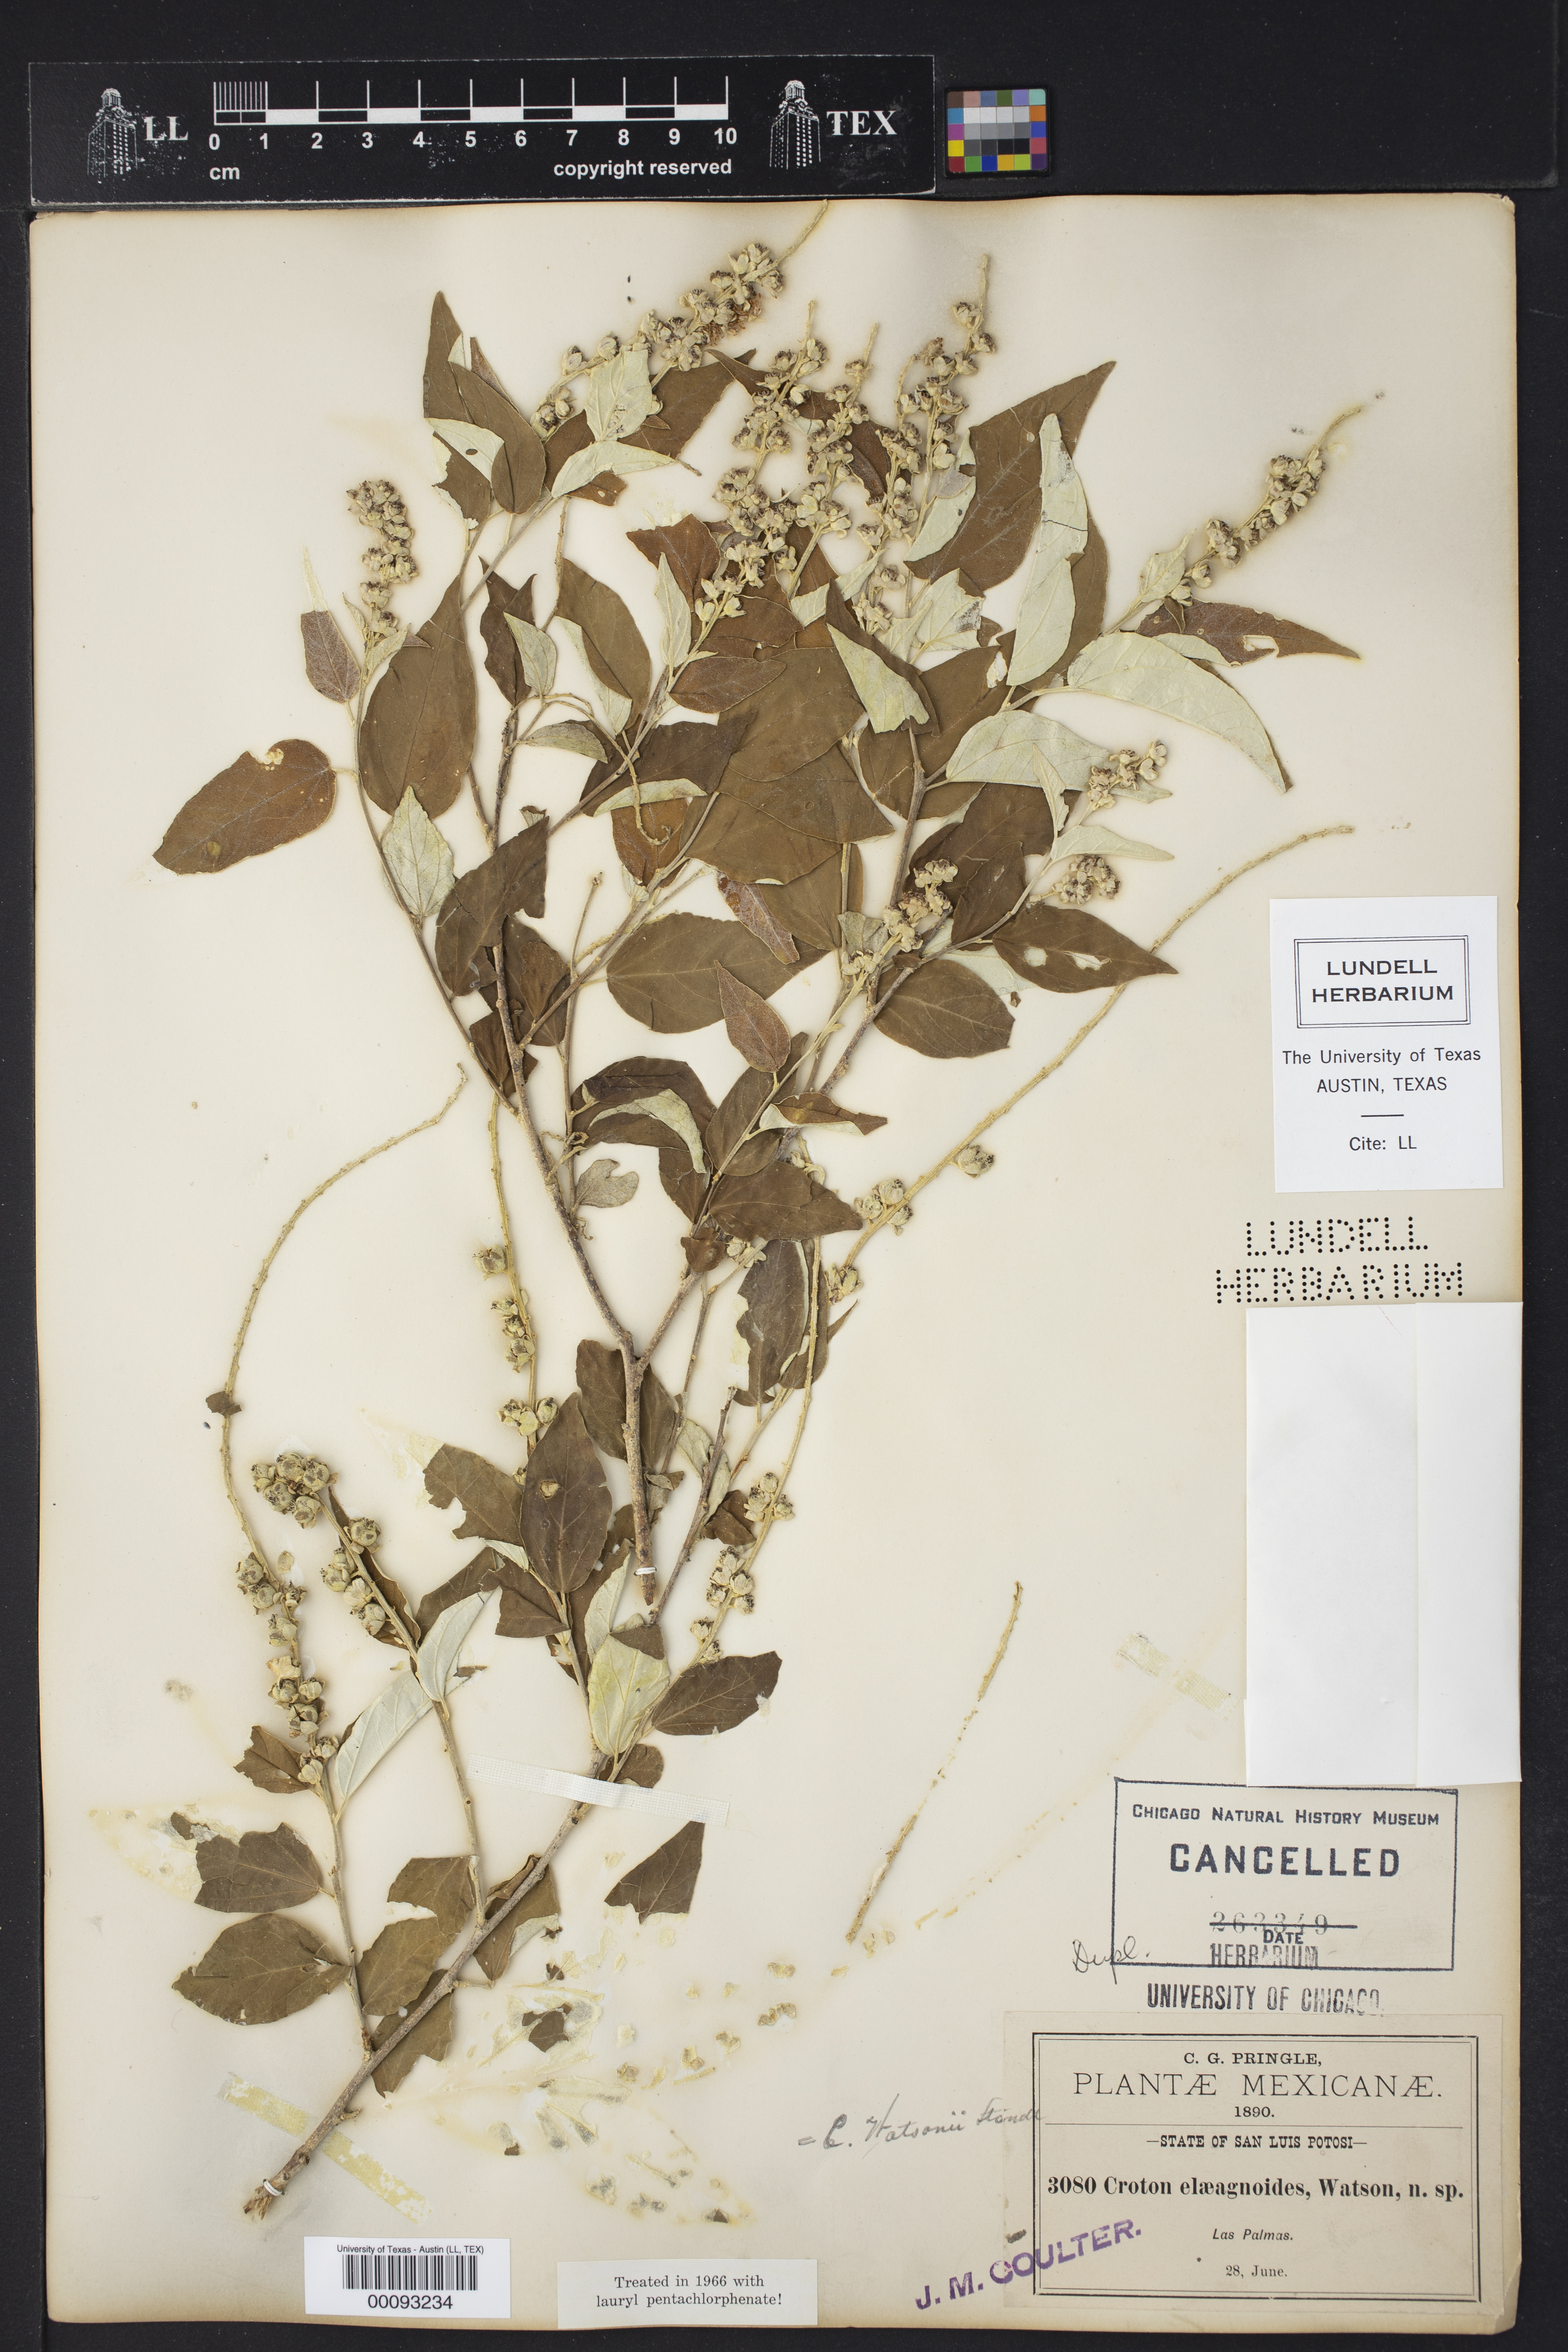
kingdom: Plantae
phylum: Tracheophyta
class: Magnoliopsida
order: Malpighiales
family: Euphorbiaceae
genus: Croton
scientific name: Croton watsonii
